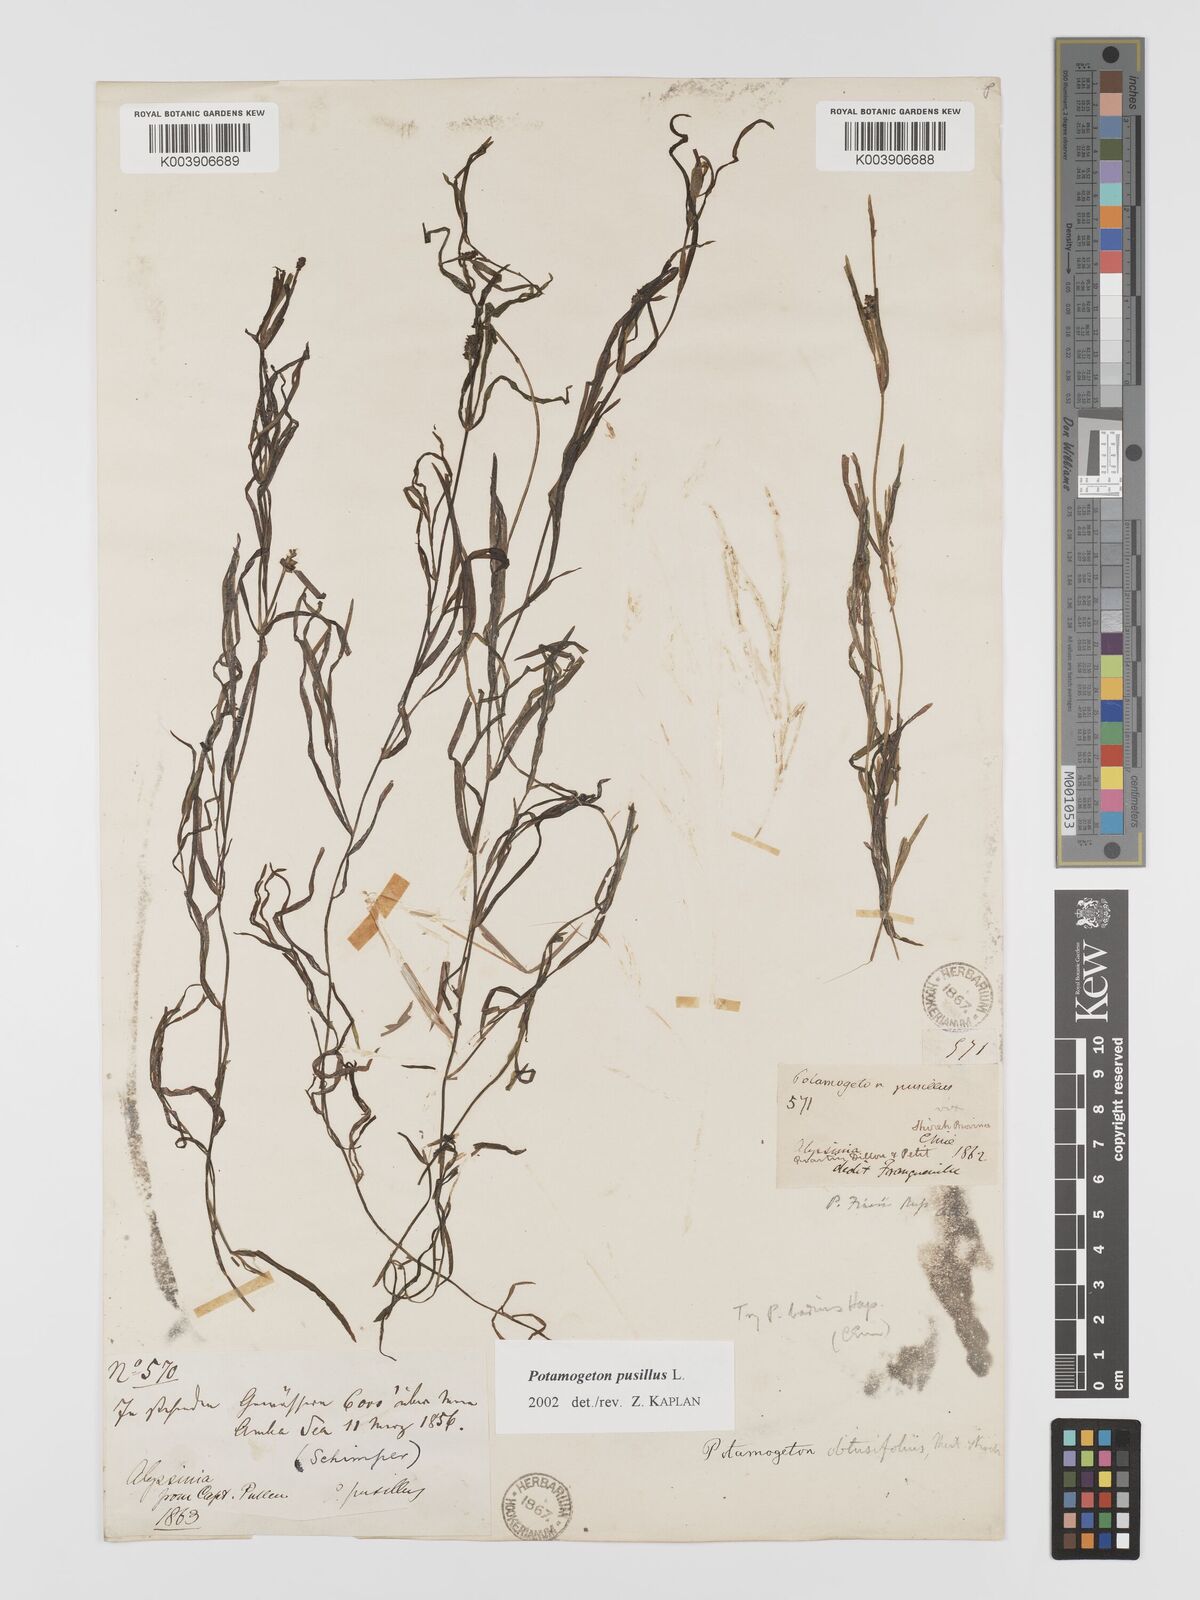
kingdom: Plantae
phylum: Tracheophyta
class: Liliopsida
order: Alismatales
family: Potamogetonaceae
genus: Potamogeton
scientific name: Potamogeton pusillus
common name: Lesser pondweed
